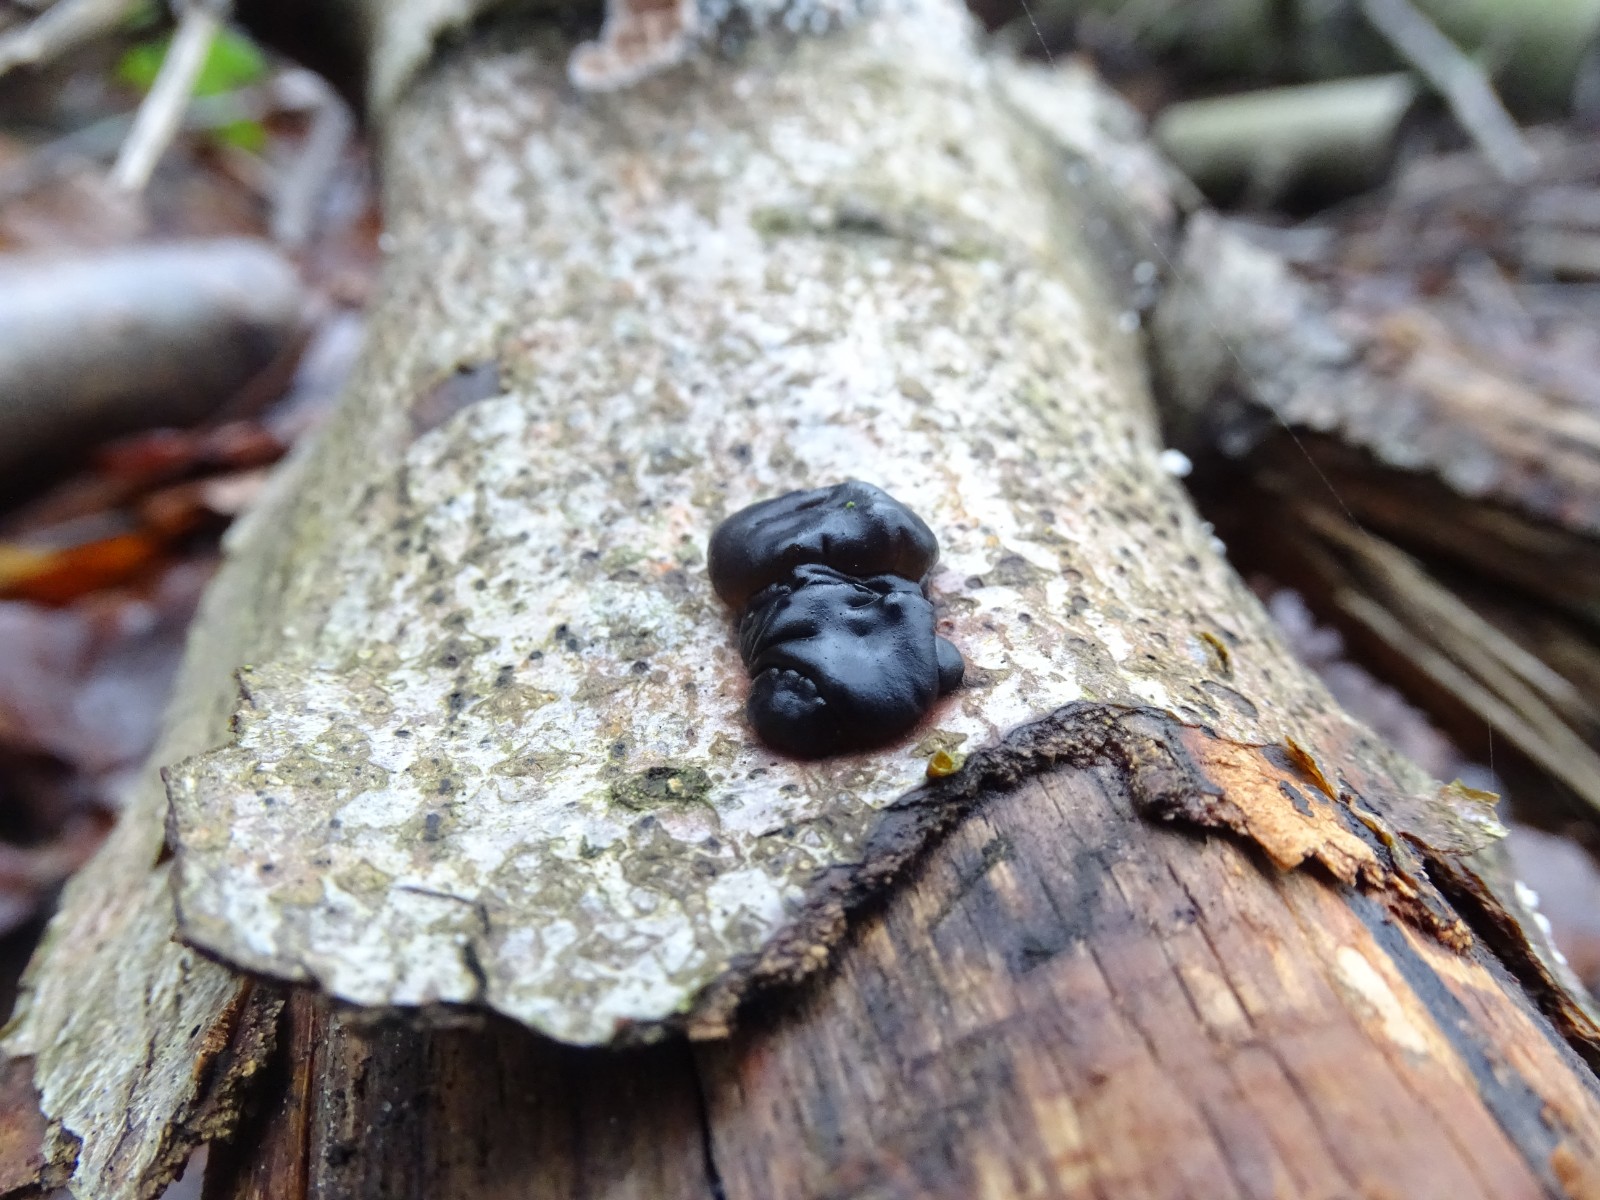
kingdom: Fungi
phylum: Basidiomycota
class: Agaricomycetes
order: Auriculariales
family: Auriculariaceae
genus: Exidia
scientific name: Exidia nigricans
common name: almindelig bævretop
